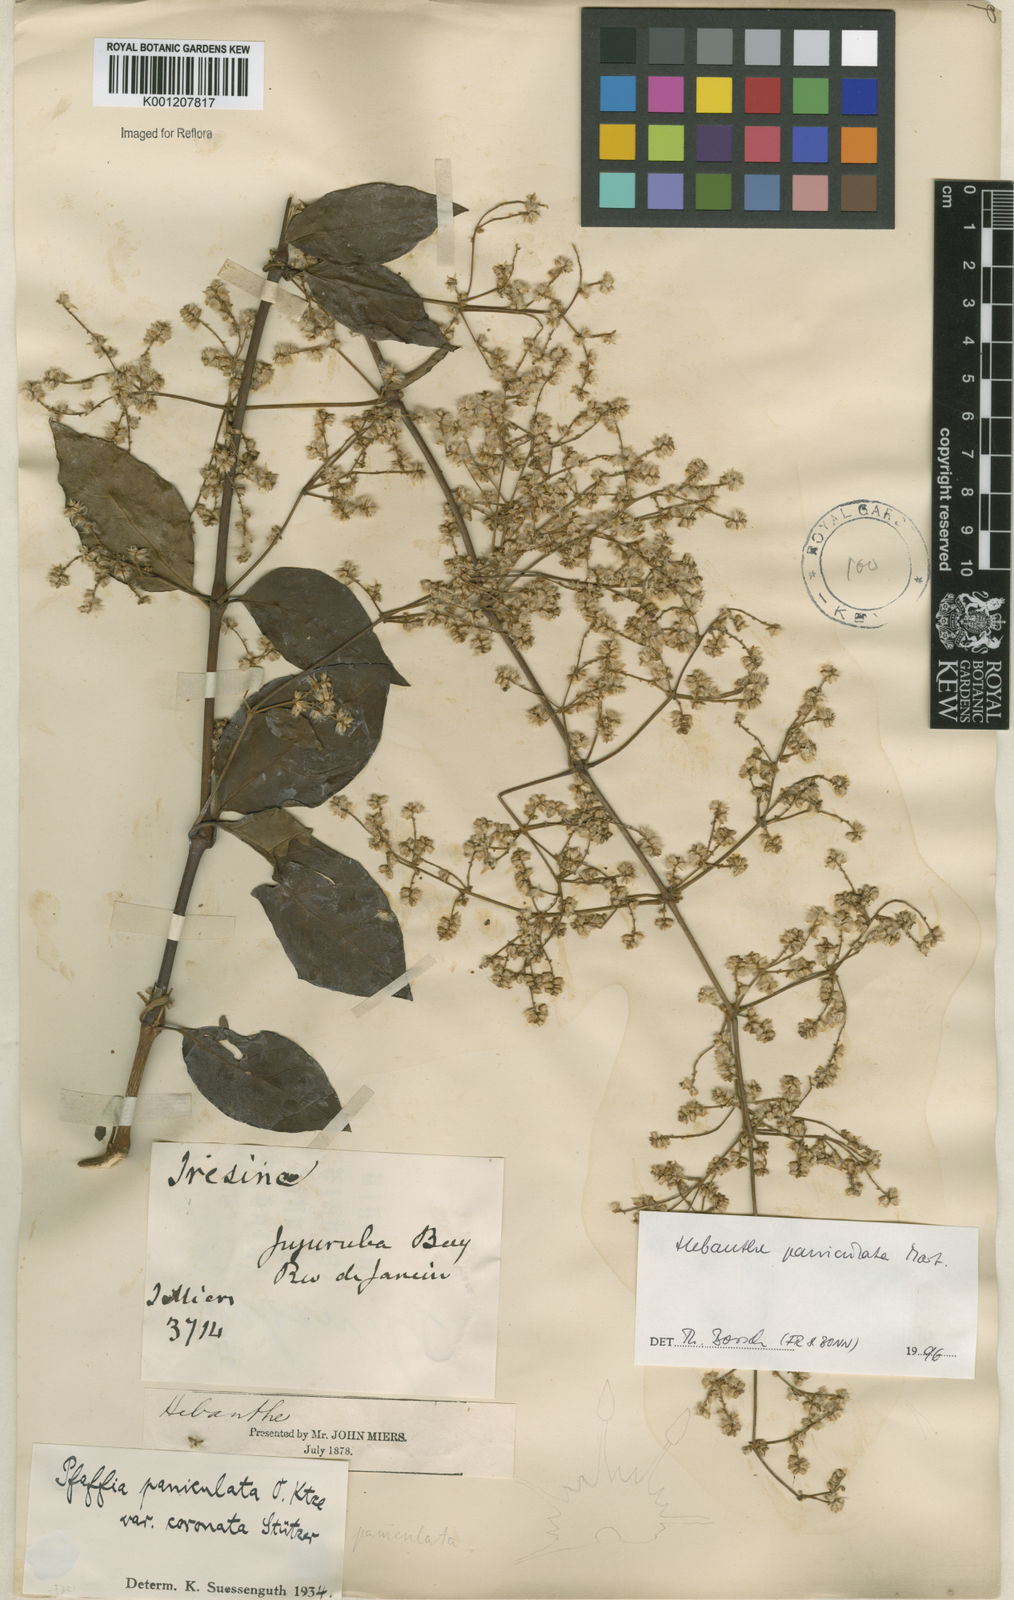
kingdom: Plantae
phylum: Tracheophyta
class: Magnoliopsida
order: Caryophyllales
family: Amaranthaceae
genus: Hebanthe
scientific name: Hebanthe erianthos
